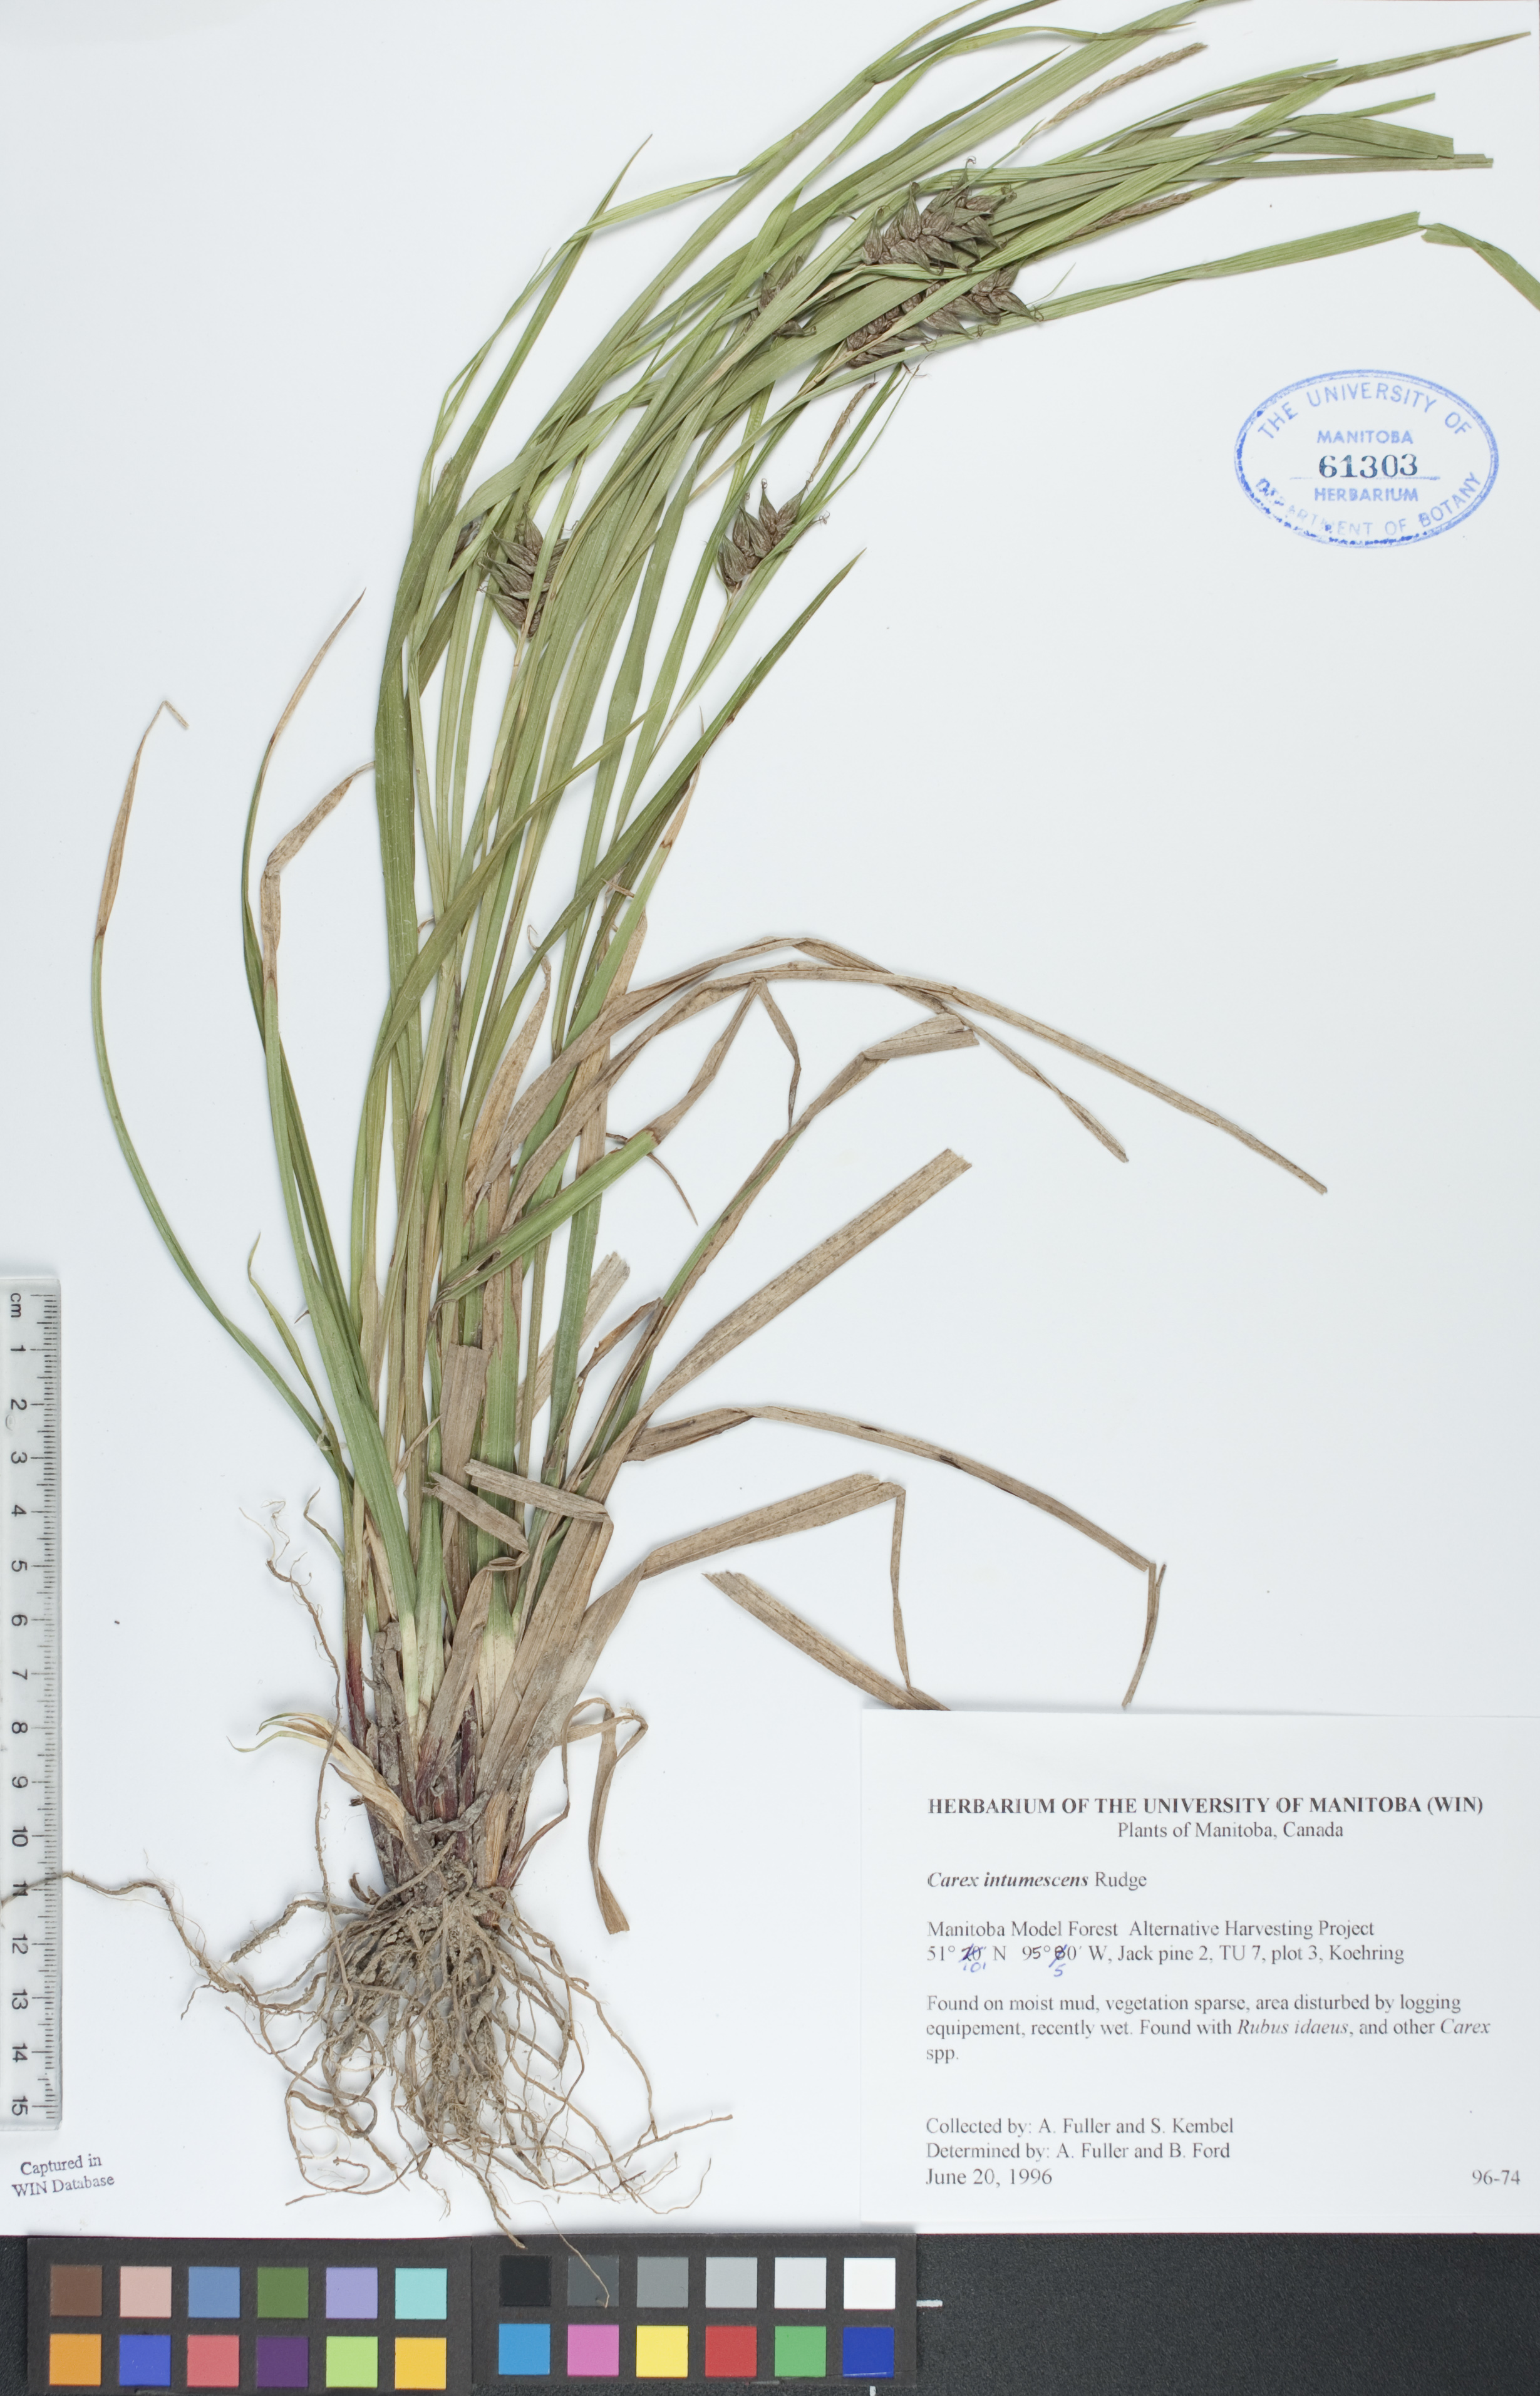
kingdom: Plantae
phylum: Tracheophyta
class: Liliopsida
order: Poales
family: Cyperaceae
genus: Carex
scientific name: Carex intumescens
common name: Greater bladder sedge
